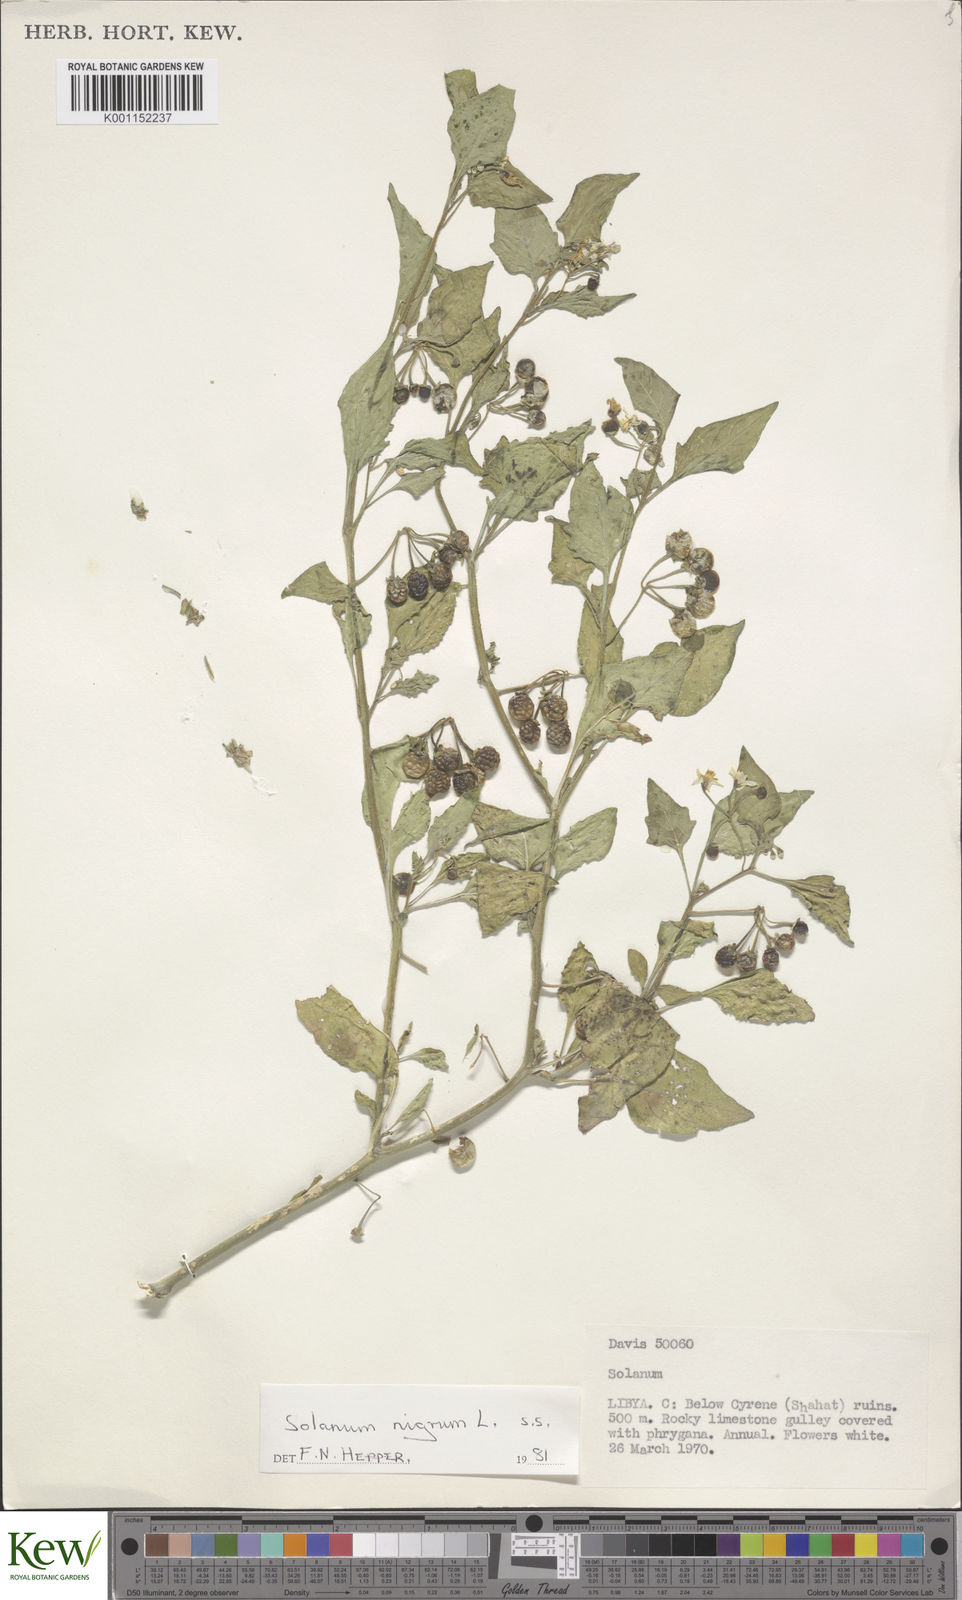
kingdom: Plantae
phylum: Tracheophyta
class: Magnoliopsida
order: Solanales
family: Solanaceae
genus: Solanum
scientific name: Solanum nigrum
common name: Black nightshade
